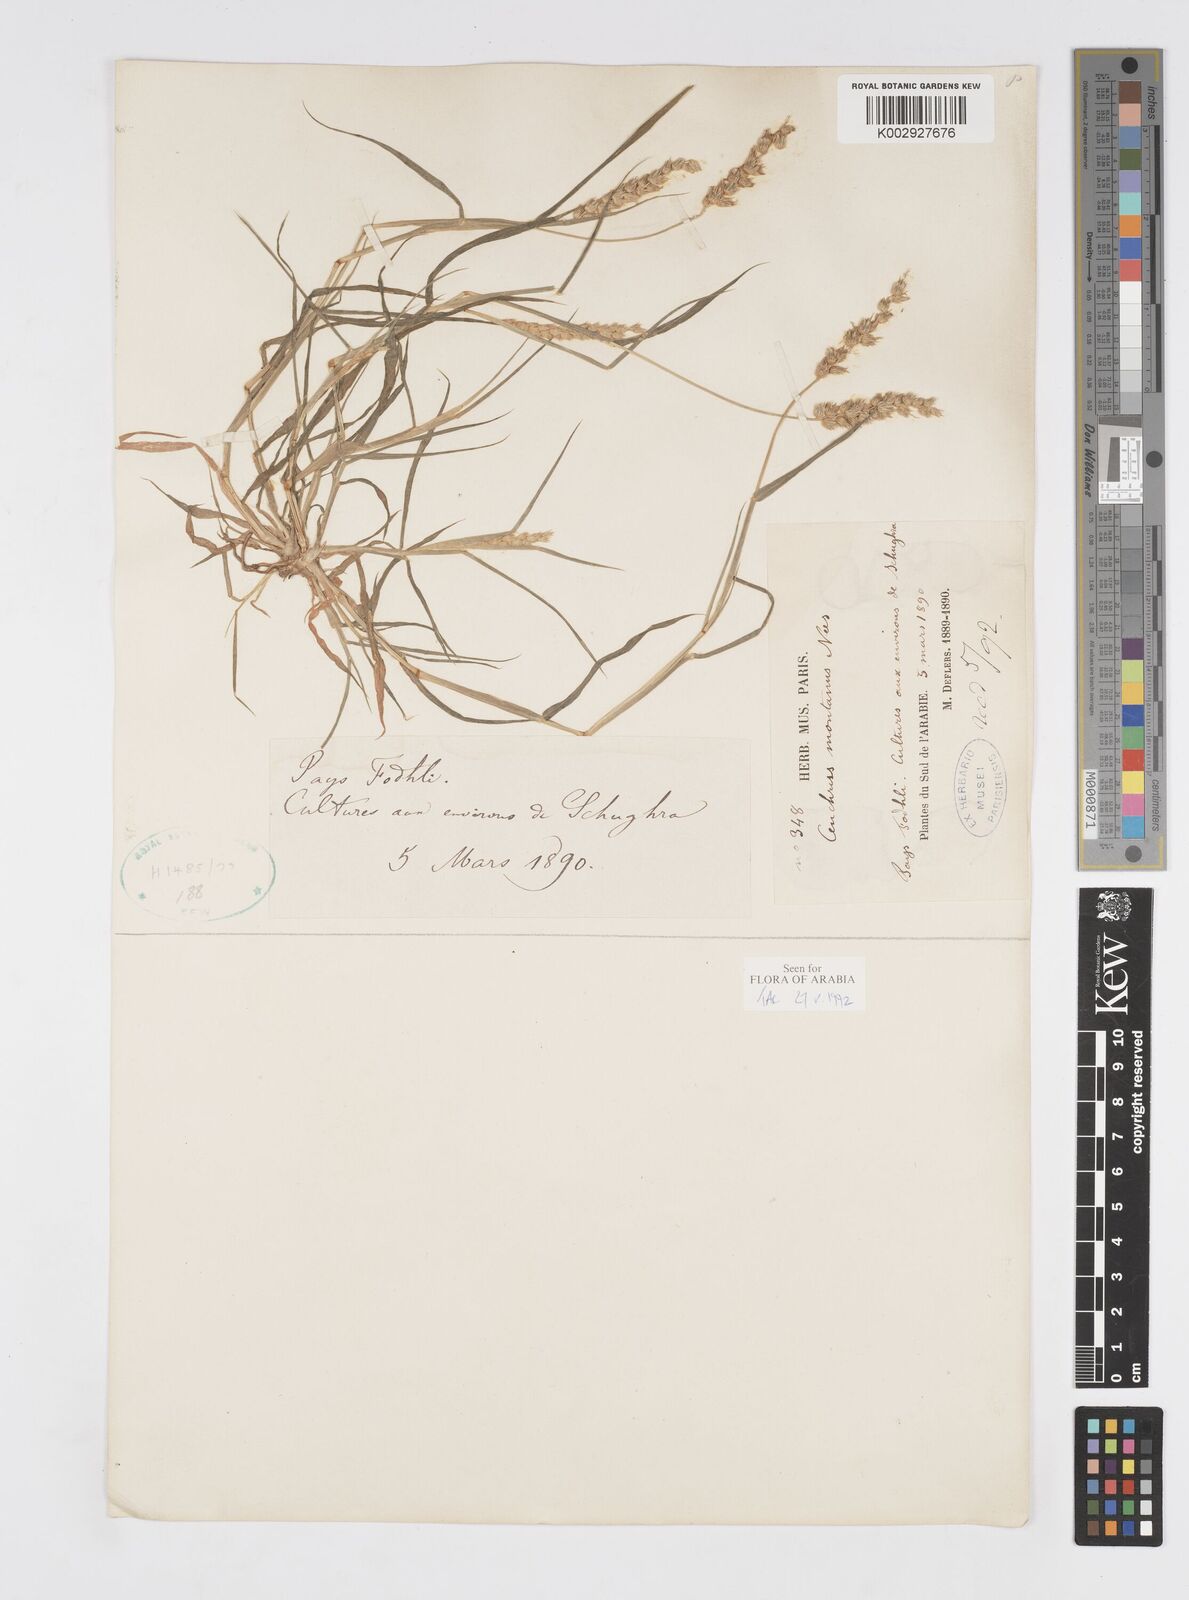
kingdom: Plantae
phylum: Tracheophyta
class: Liliopsida
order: Poales
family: Poaceae
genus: Cenchrus
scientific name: Cenchrus setigerus
